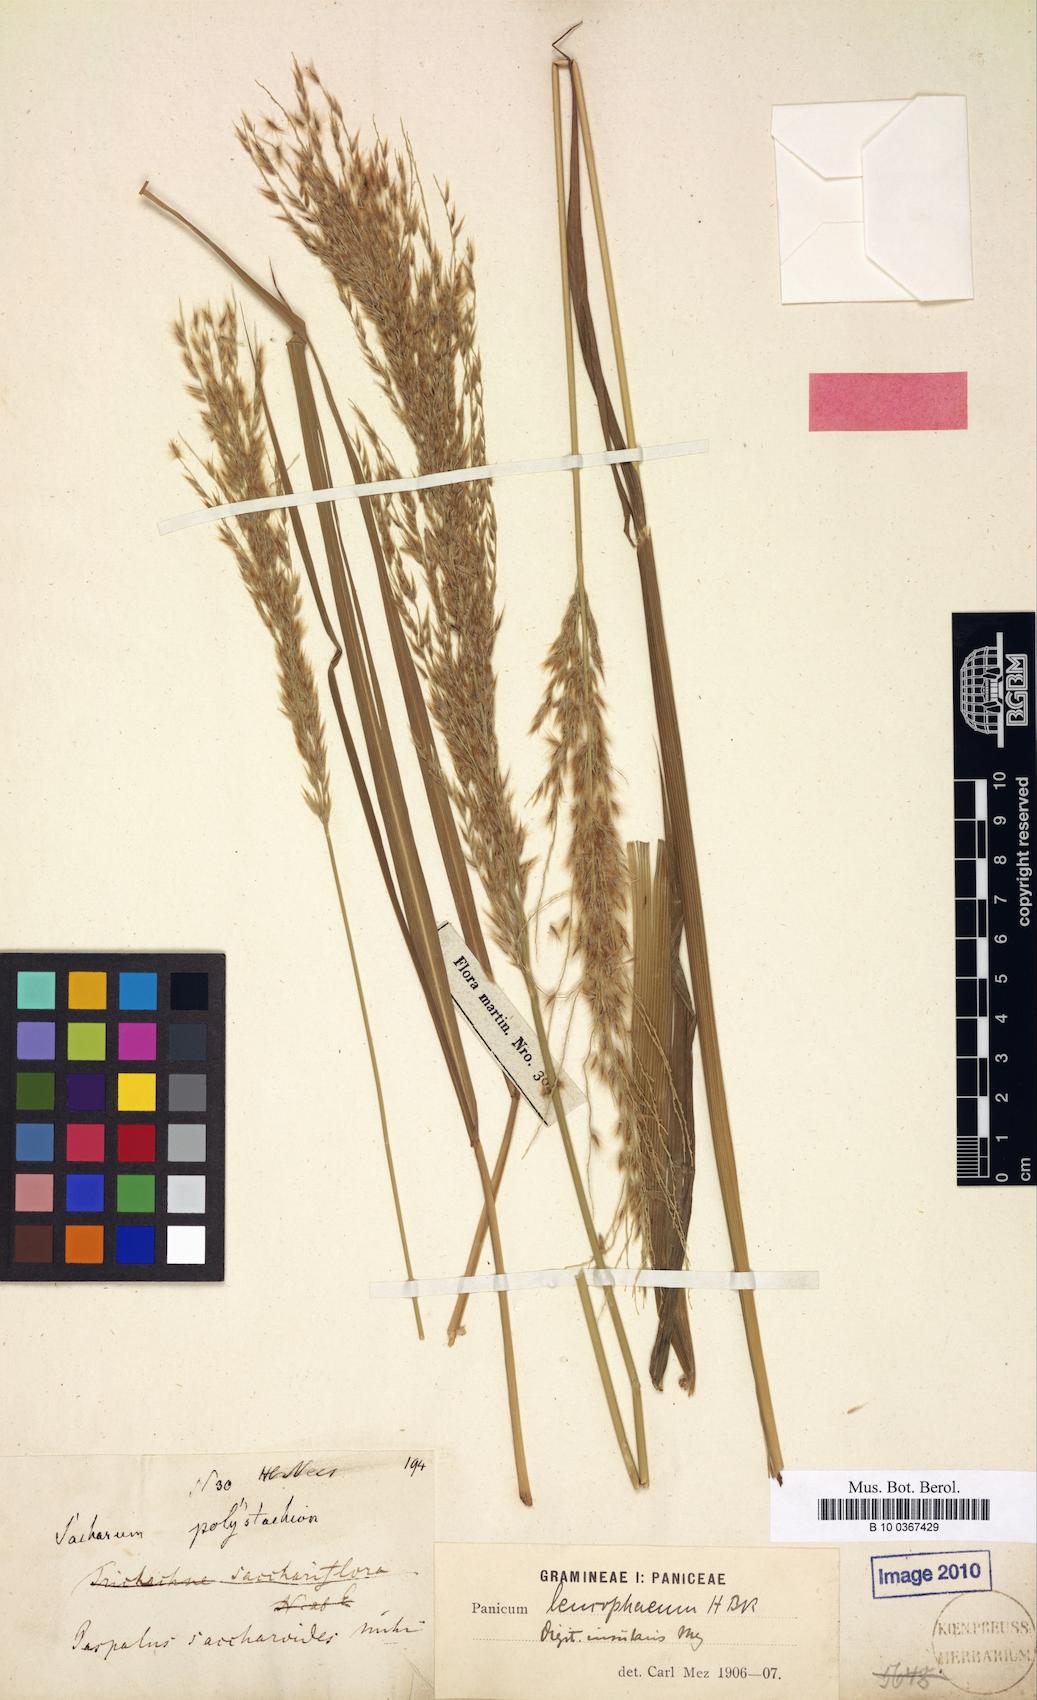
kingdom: Plantae
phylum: Tracheophyta
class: Liliopsida
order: Poales
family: Poaceae
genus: Paspalum
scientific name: Paspalum saccharoides
